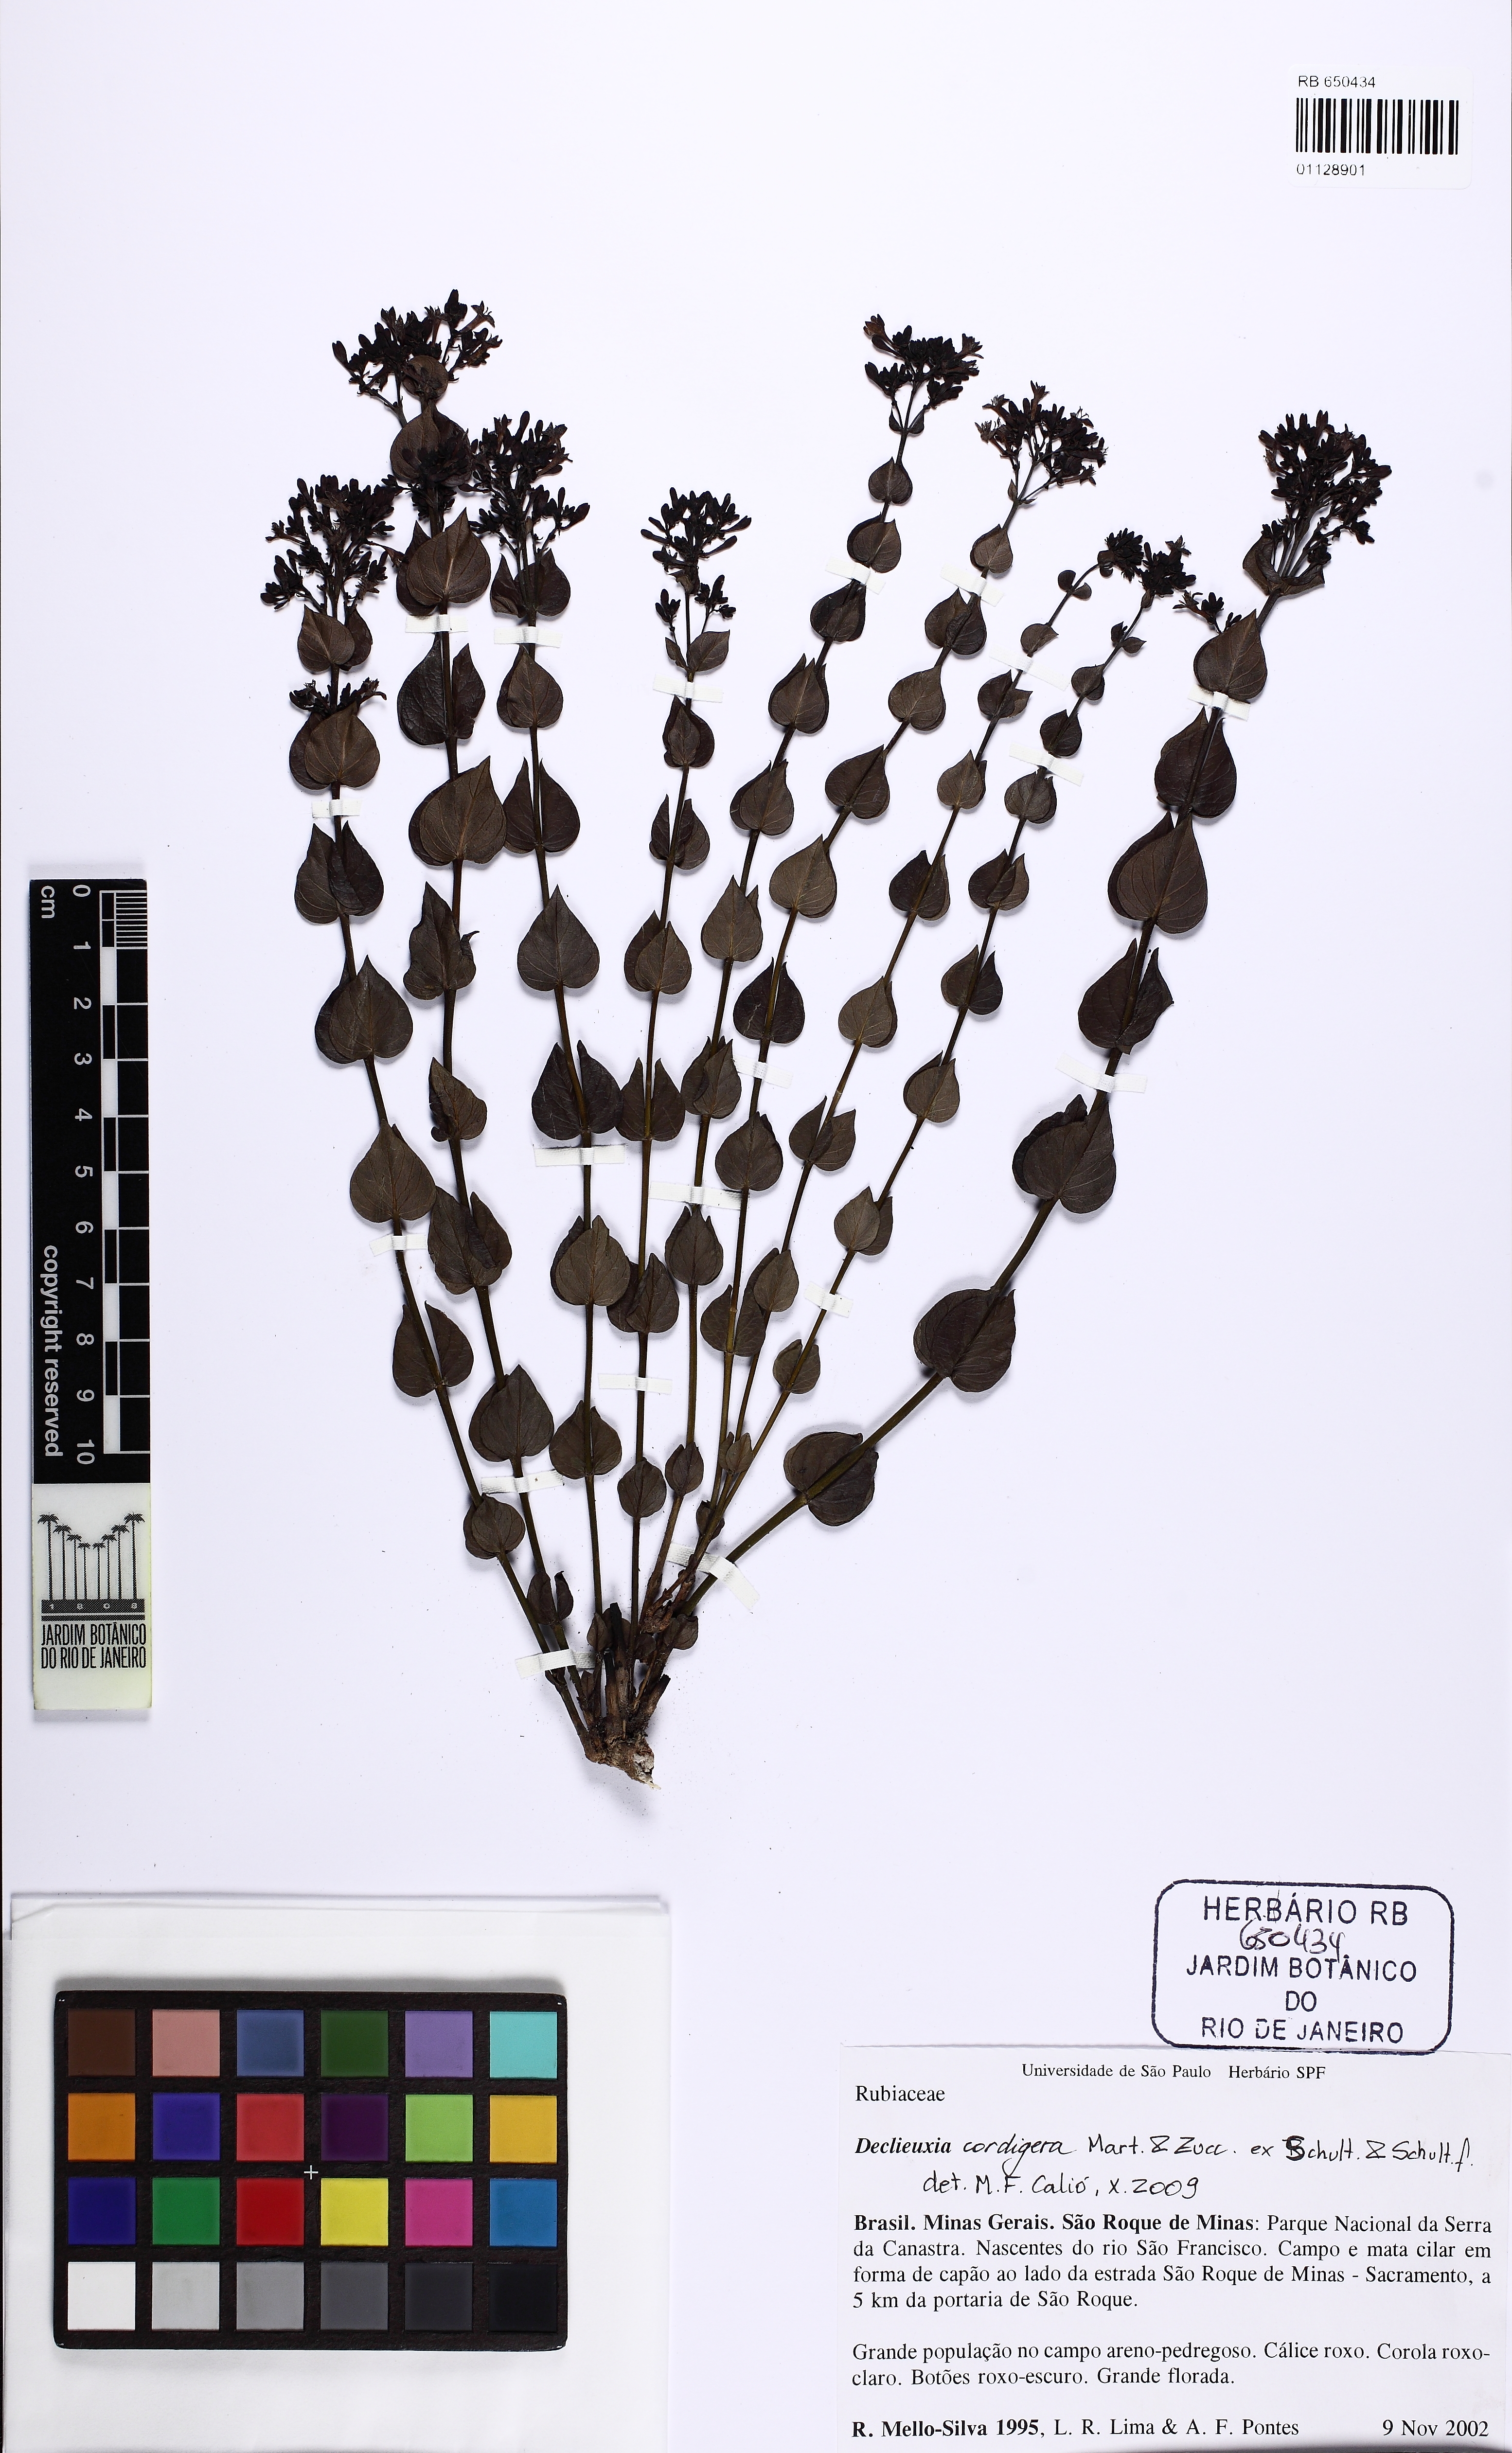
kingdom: Plantae
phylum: Tracheophyta
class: Magnoliopsida
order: Gentianales
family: Rubiaceae
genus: Declieuxia
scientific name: Declieuxia cordigera
